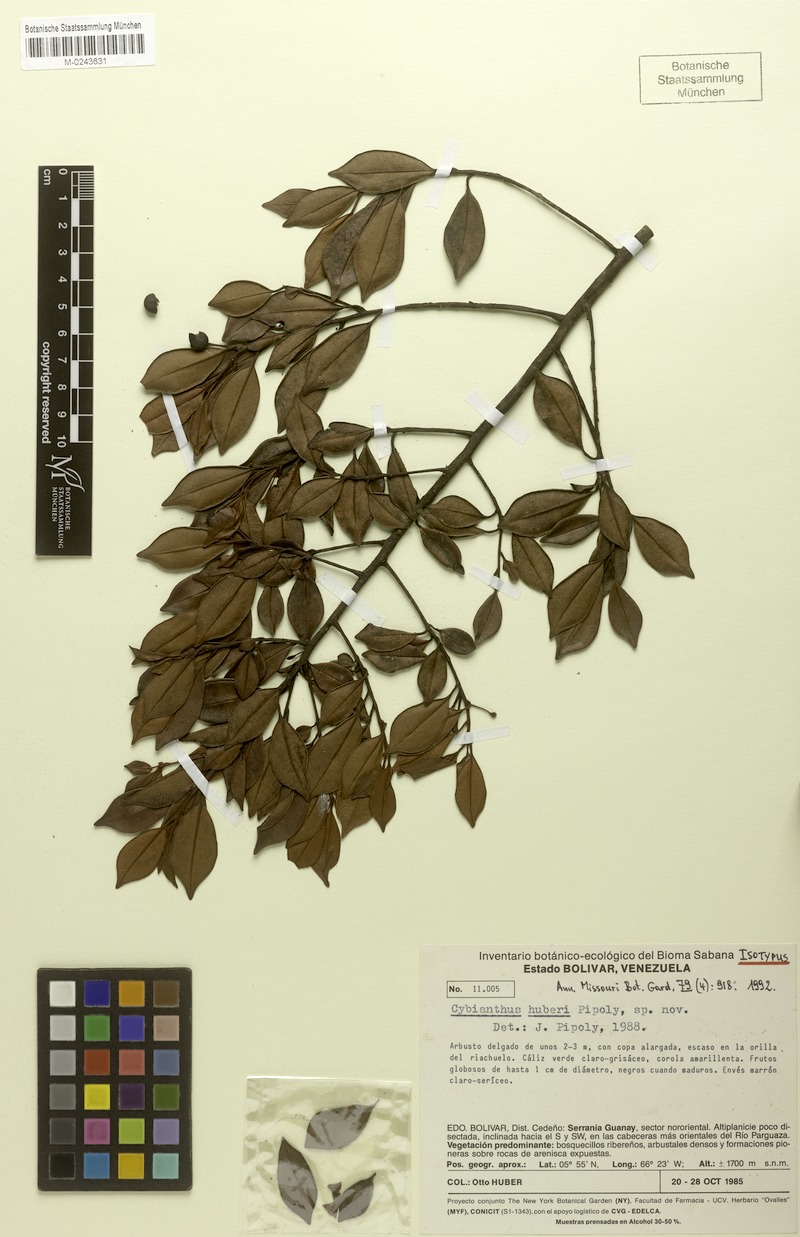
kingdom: Plantae
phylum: Tracheophyta
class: Magnoliopsida
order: Ericales
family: Primulaceae
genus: Cybianthus
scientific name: Cybianthus huberi
